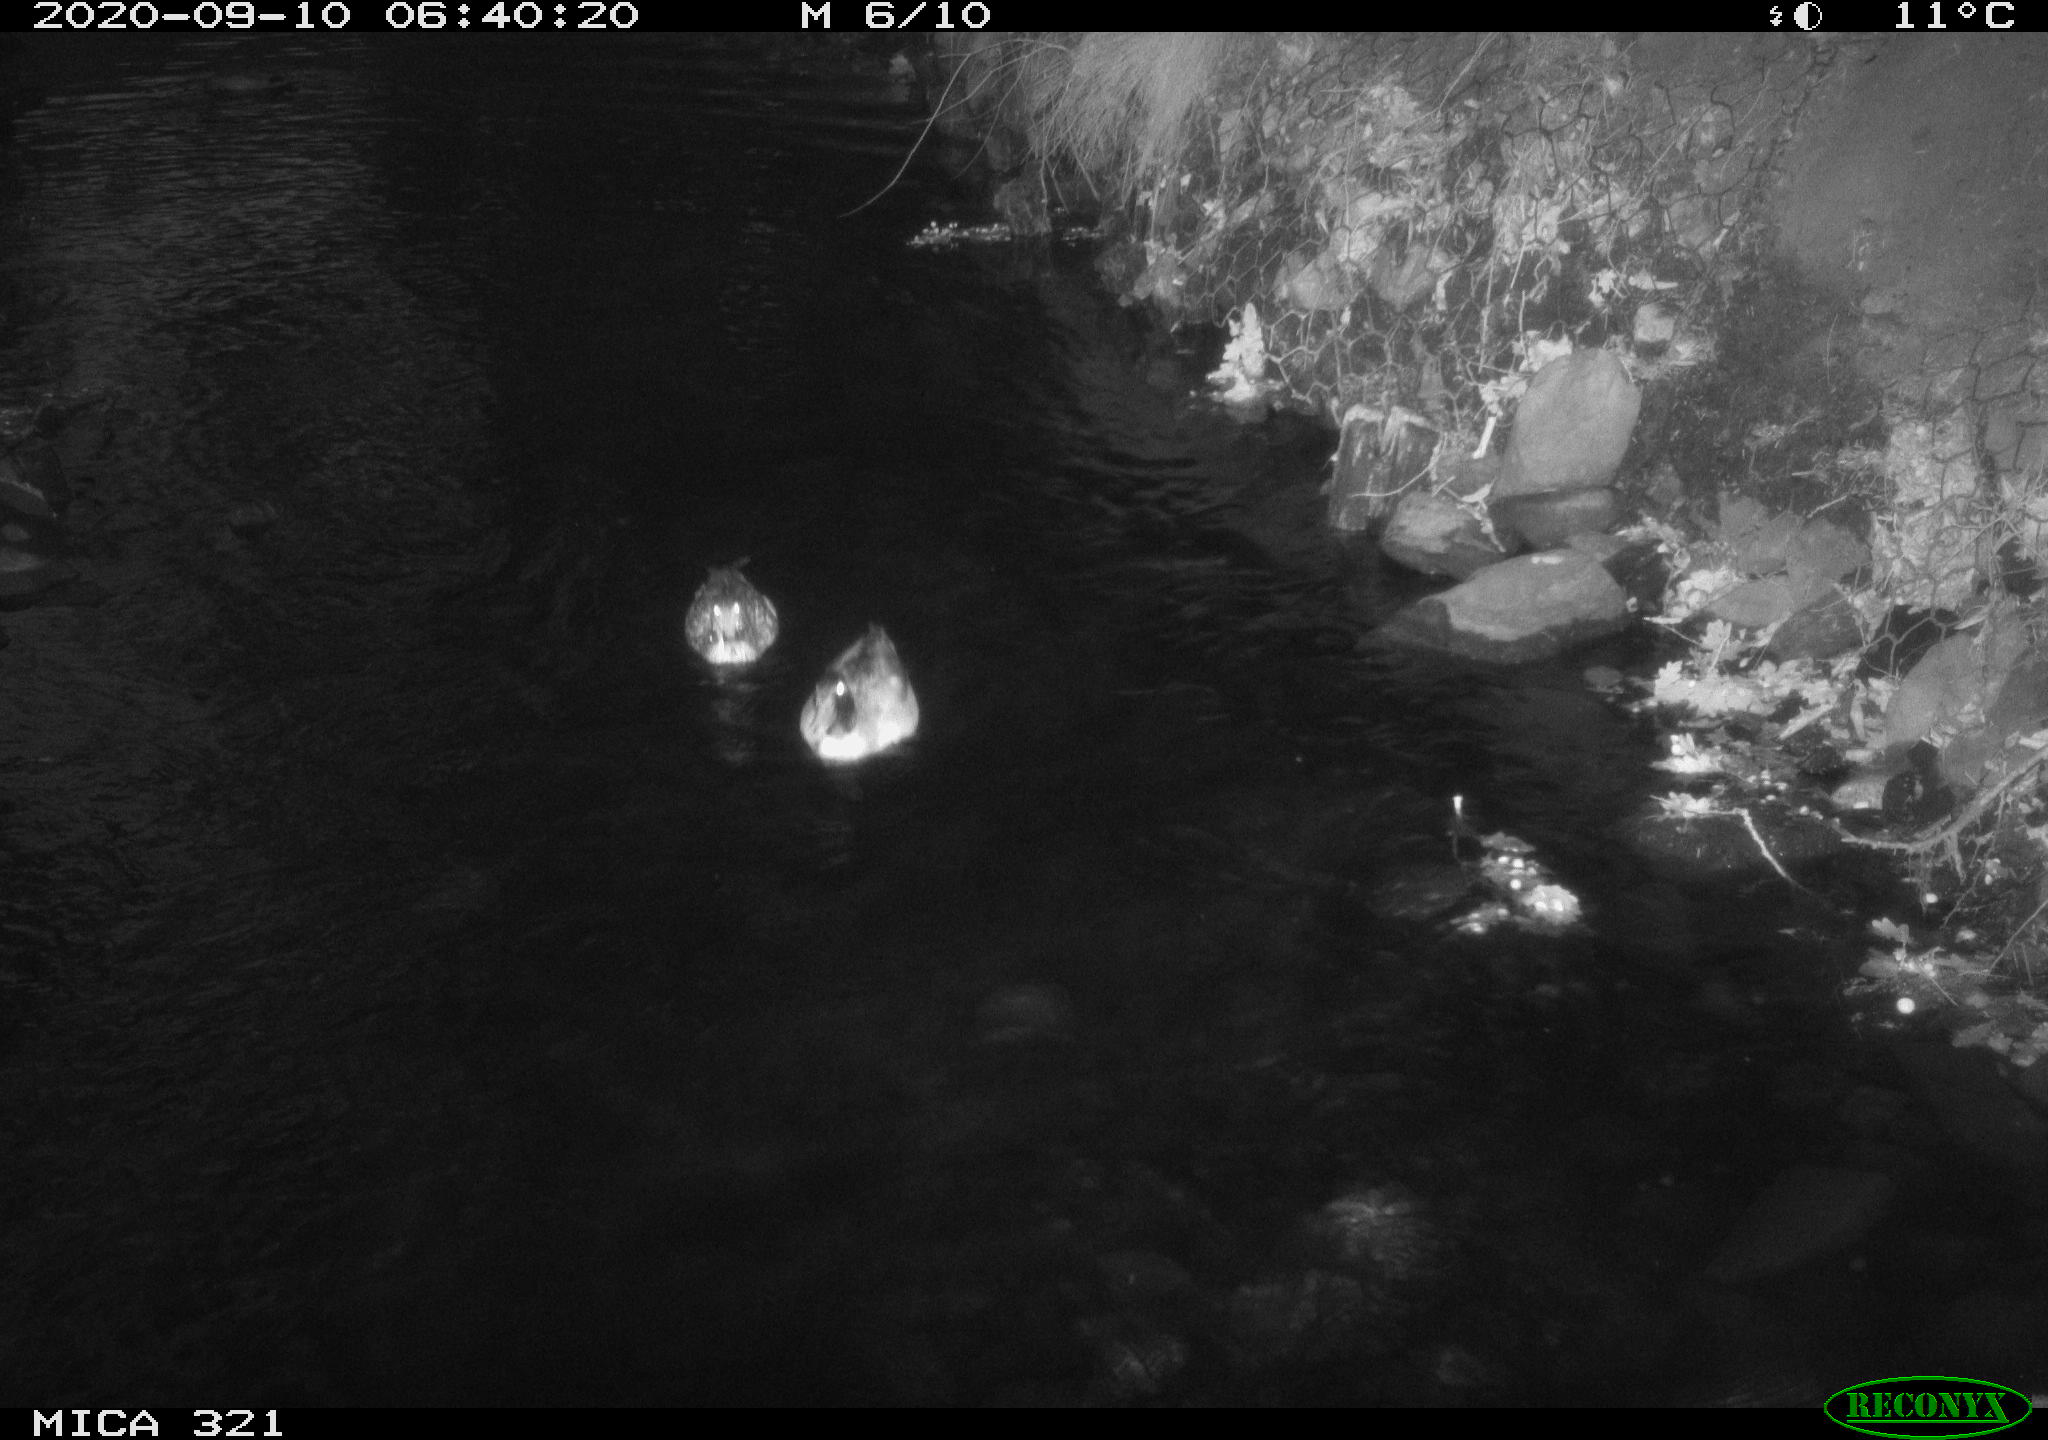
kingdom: Animalia
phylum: Chordata
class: Aves
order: Anseriformes
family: Anatidae
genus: Anas
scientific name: Anas platyrhynchos
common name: Mallard
